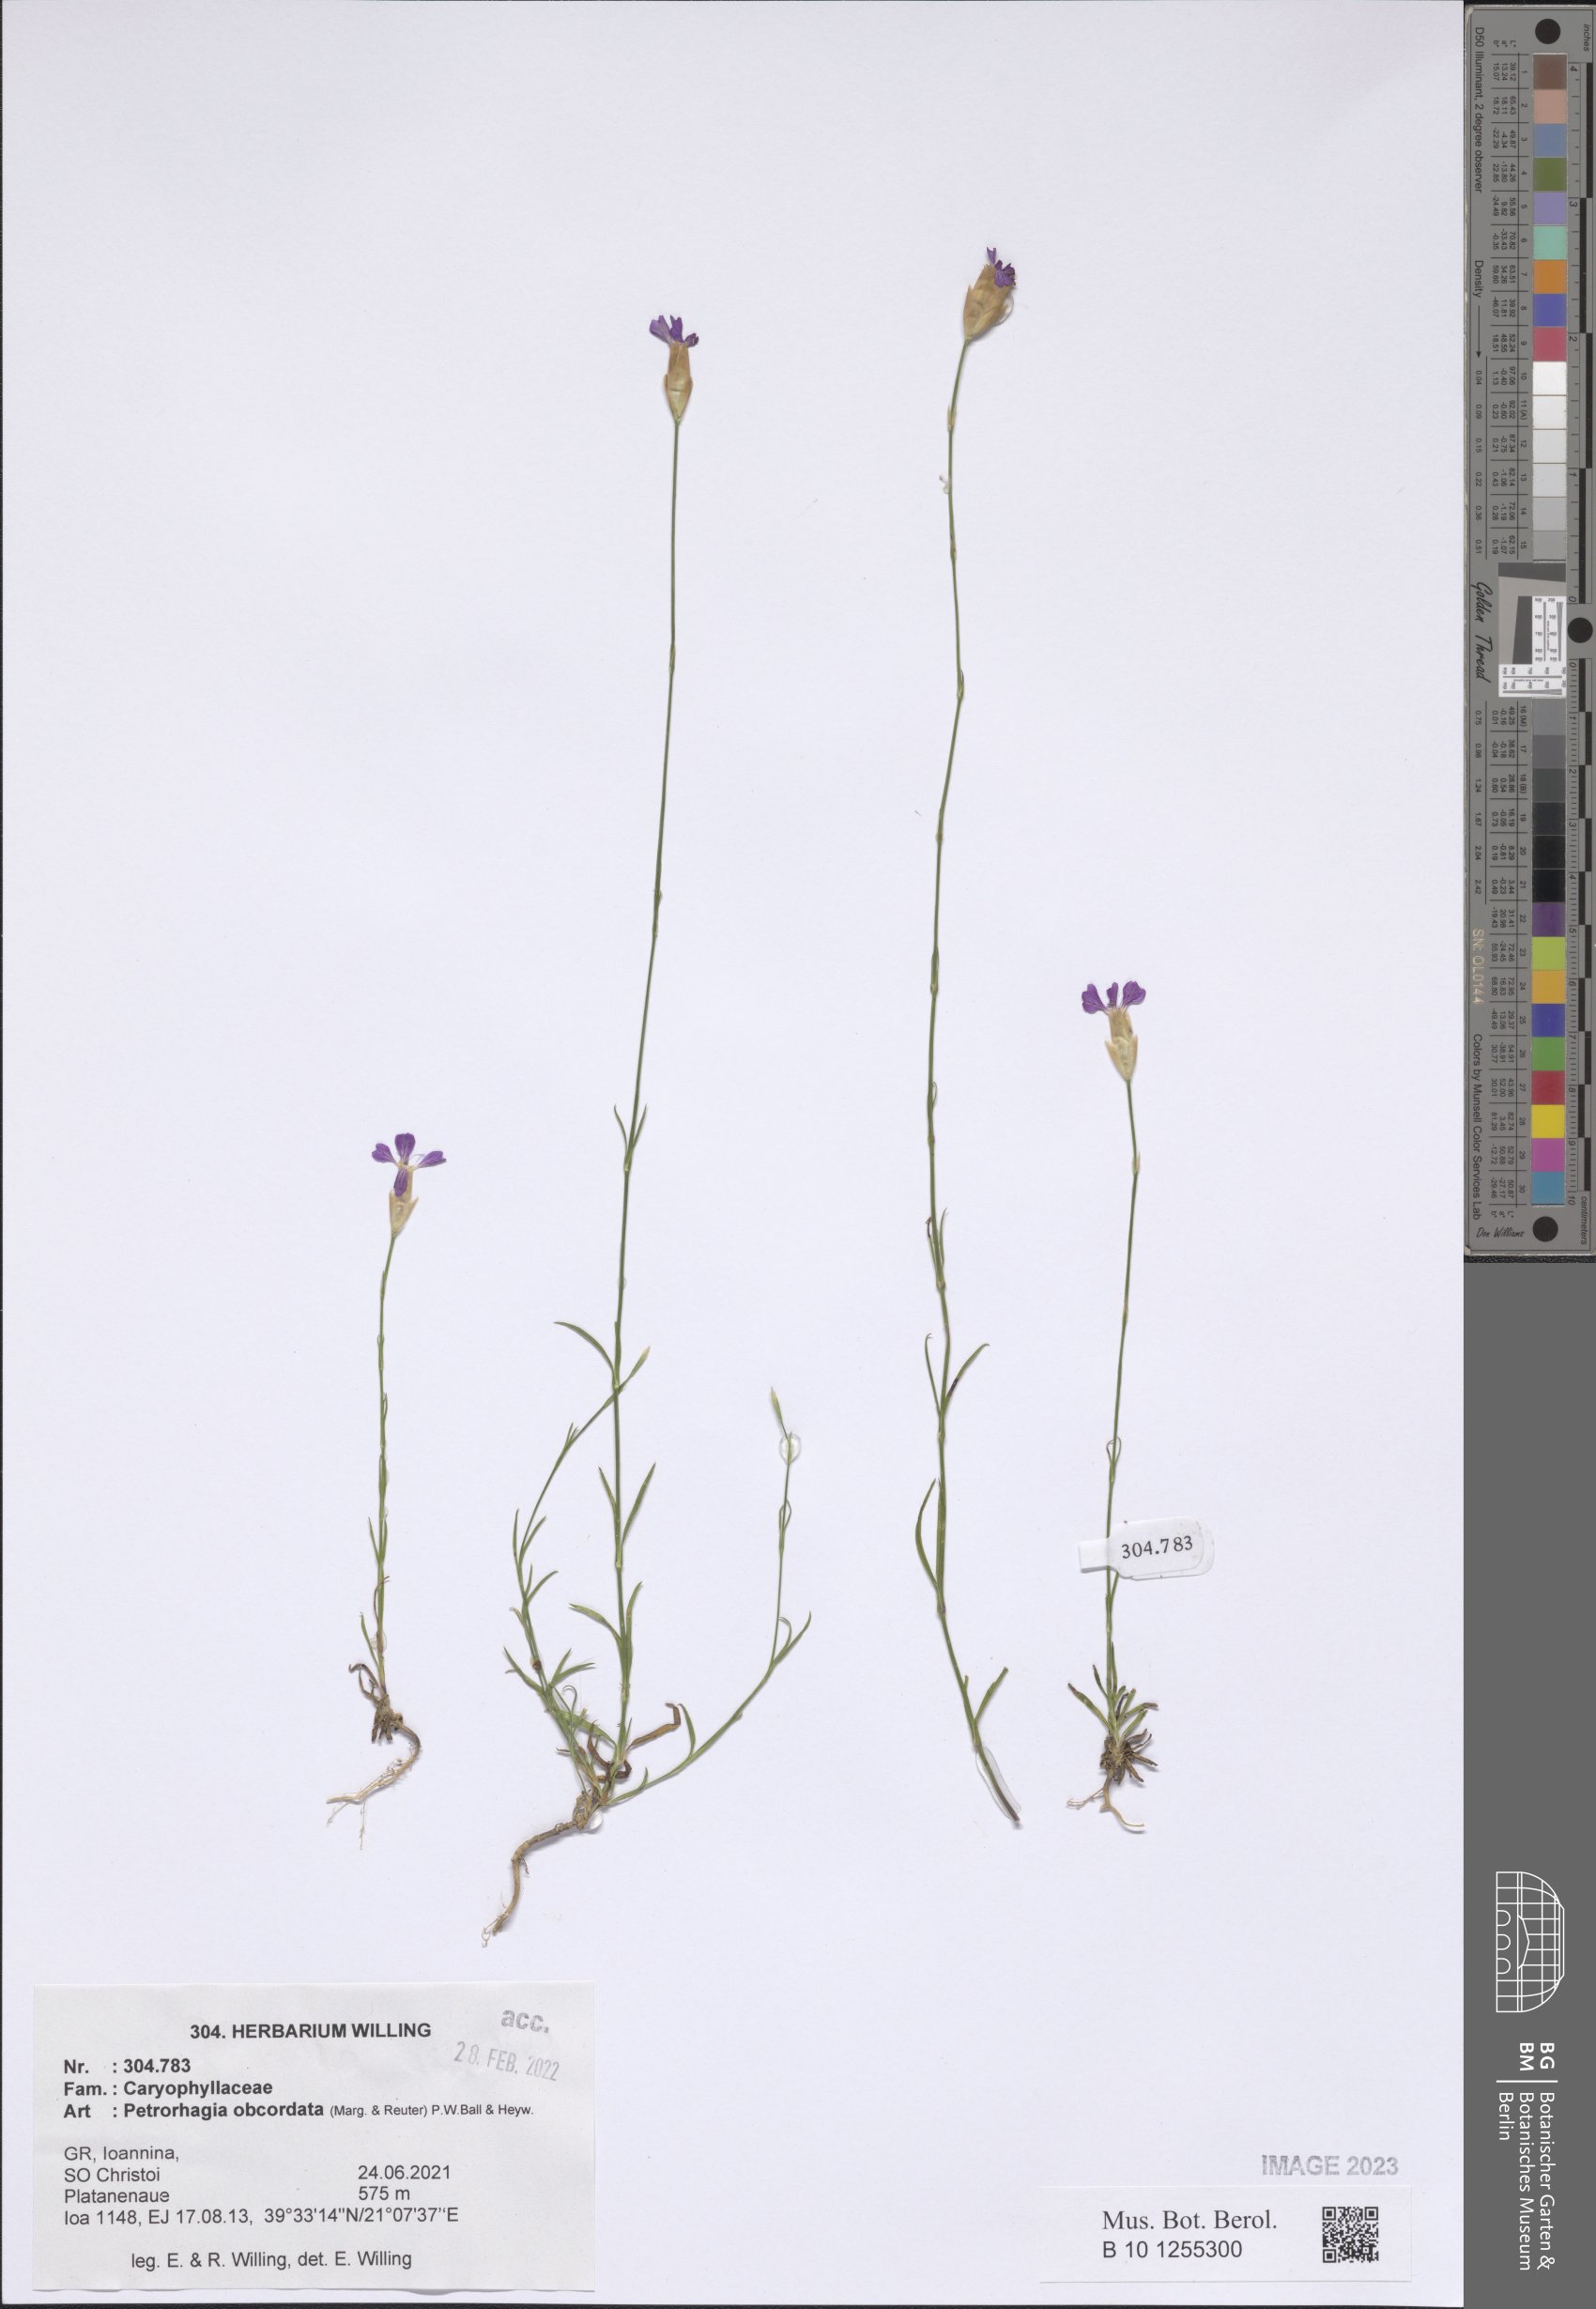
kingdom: Plantae
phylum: Tracheophyta
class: Magnoliopsida
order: Caryophyllales
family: Caryophyllaceae
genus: Petrorhagia
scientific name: Petrorhagia obcordata
